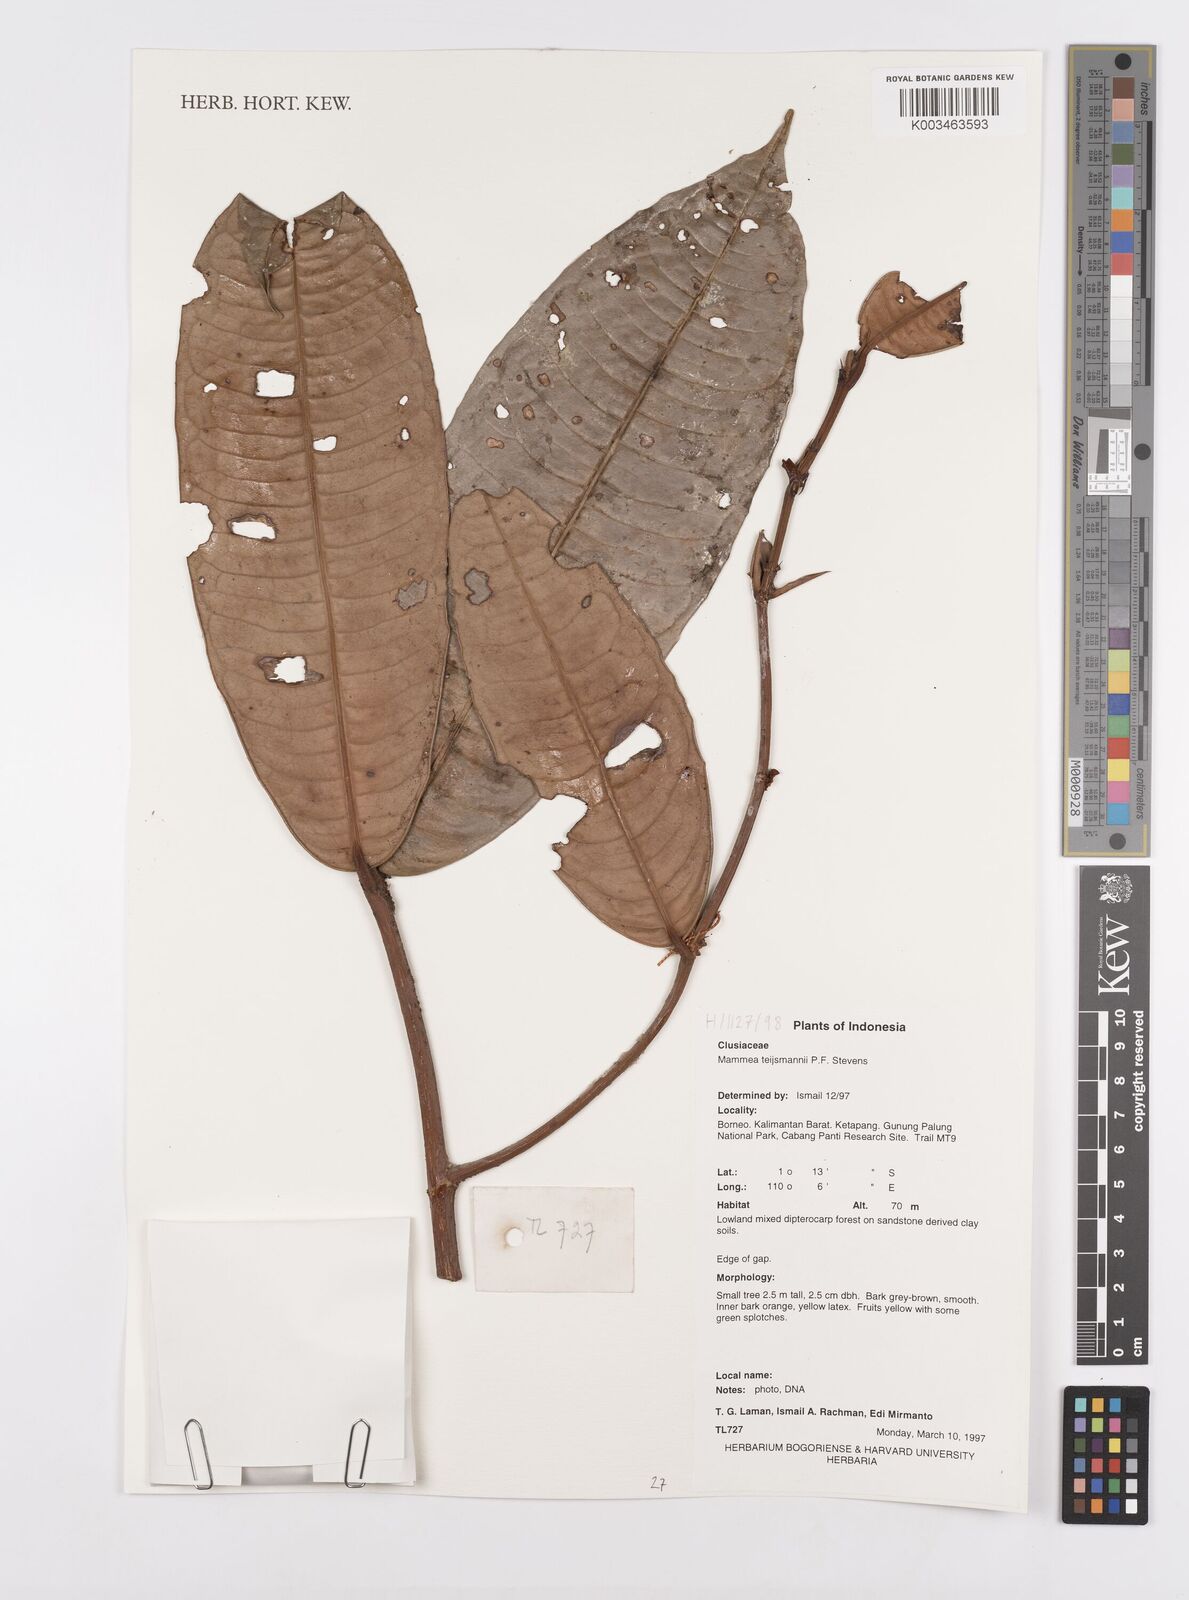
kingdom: Plantae
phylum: Tracheophyta
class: Magnoliopsida
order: Malpighiales
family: Calophyllaceae
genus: Mammea
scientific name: Mammea
